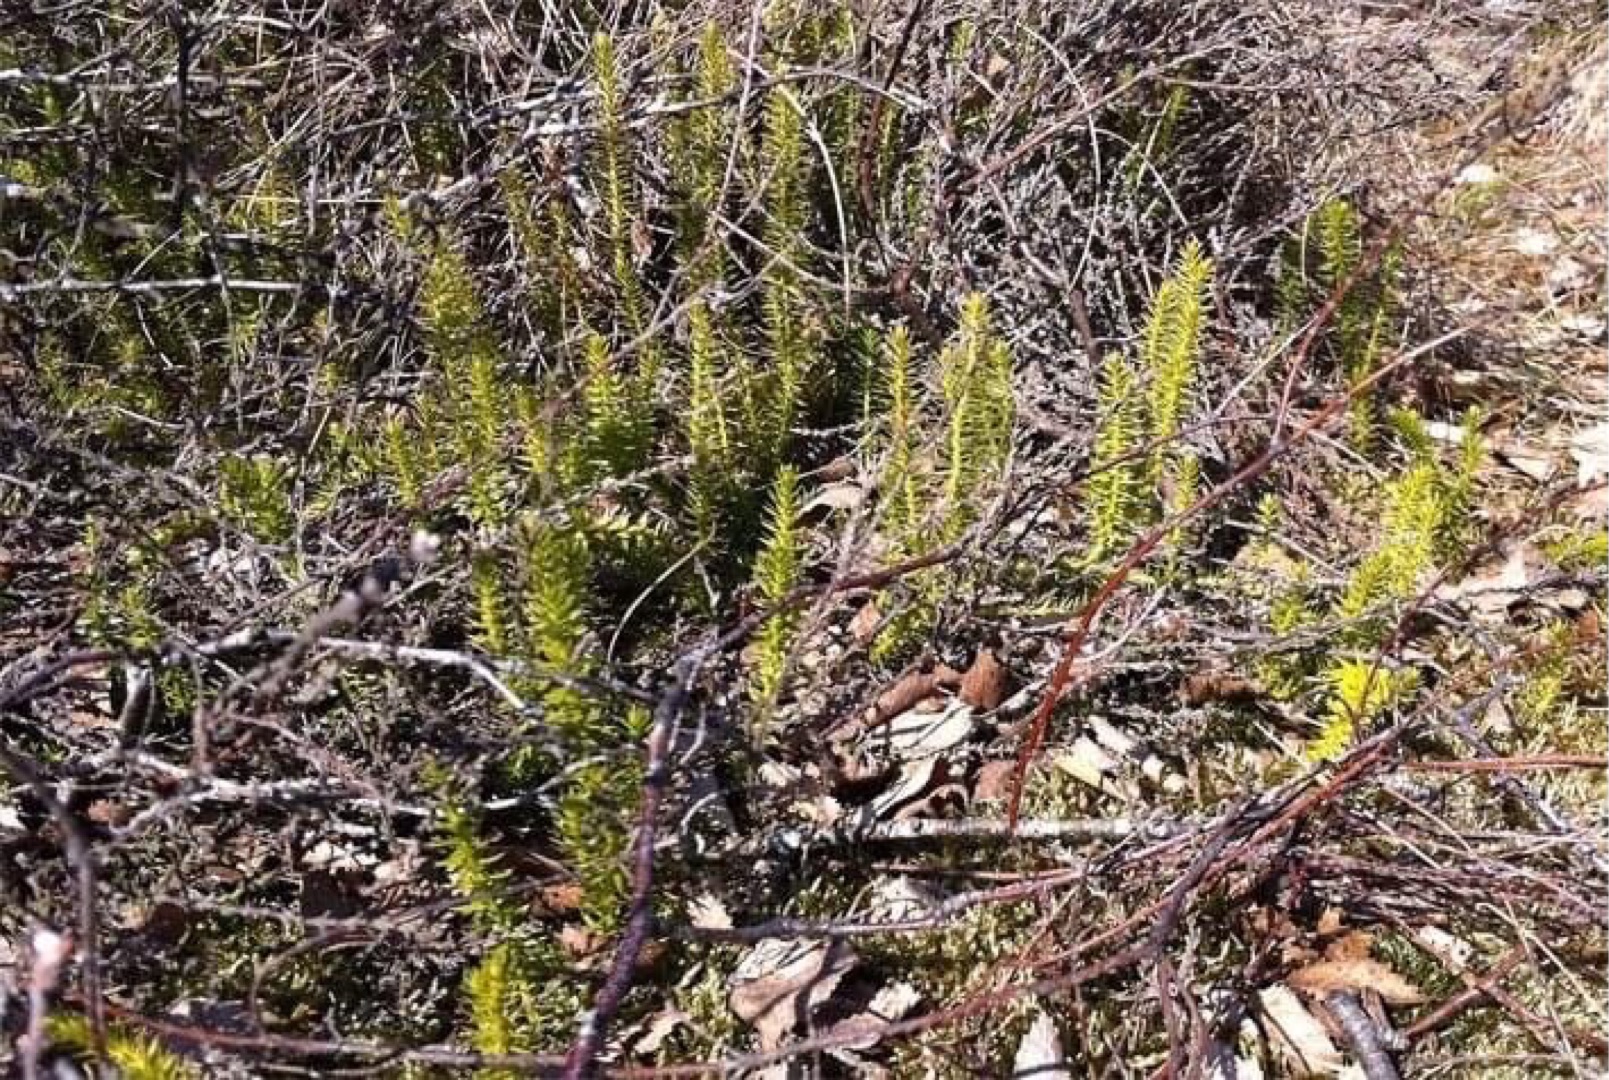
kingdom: Plantae
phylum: Tracheophyta
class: Lycopodiopsida
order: Lycopodiales
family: Lycopodiaceae
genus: Spinulum
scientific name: Spinulum annotinum
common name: Femradet ulvefod
